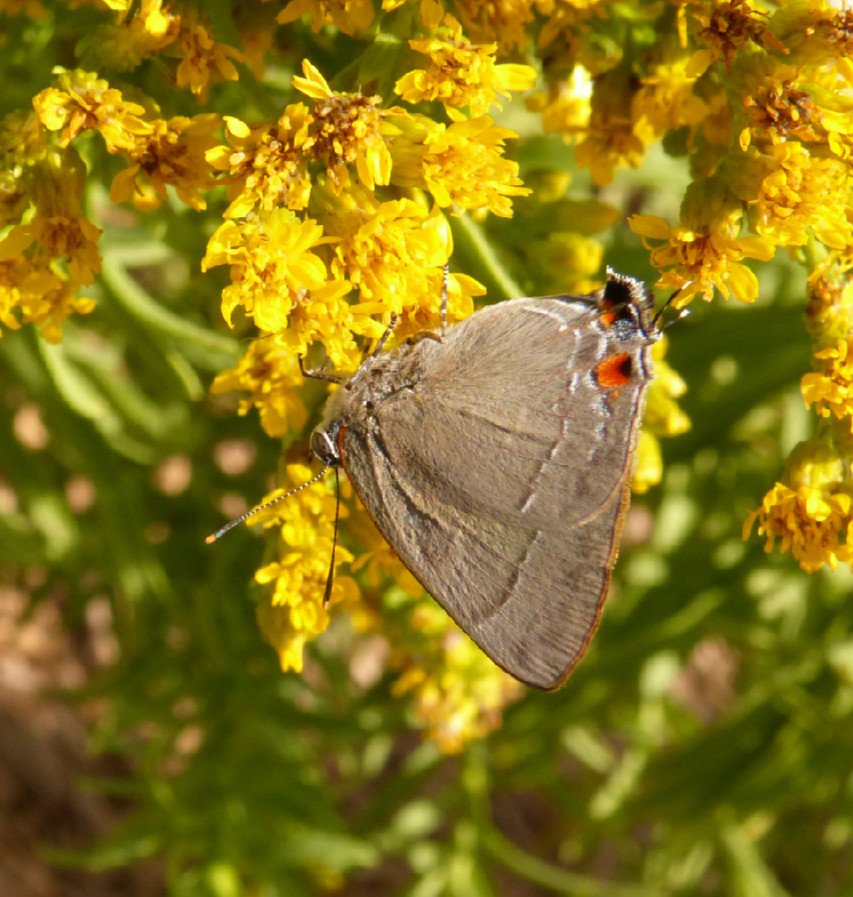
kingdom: Animalia
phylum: Arthropoda
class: Insecta
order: Lepidoptera
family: Lycaenidae
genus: Thecla
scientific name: Thecla marius
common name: Marius Hairstreak
